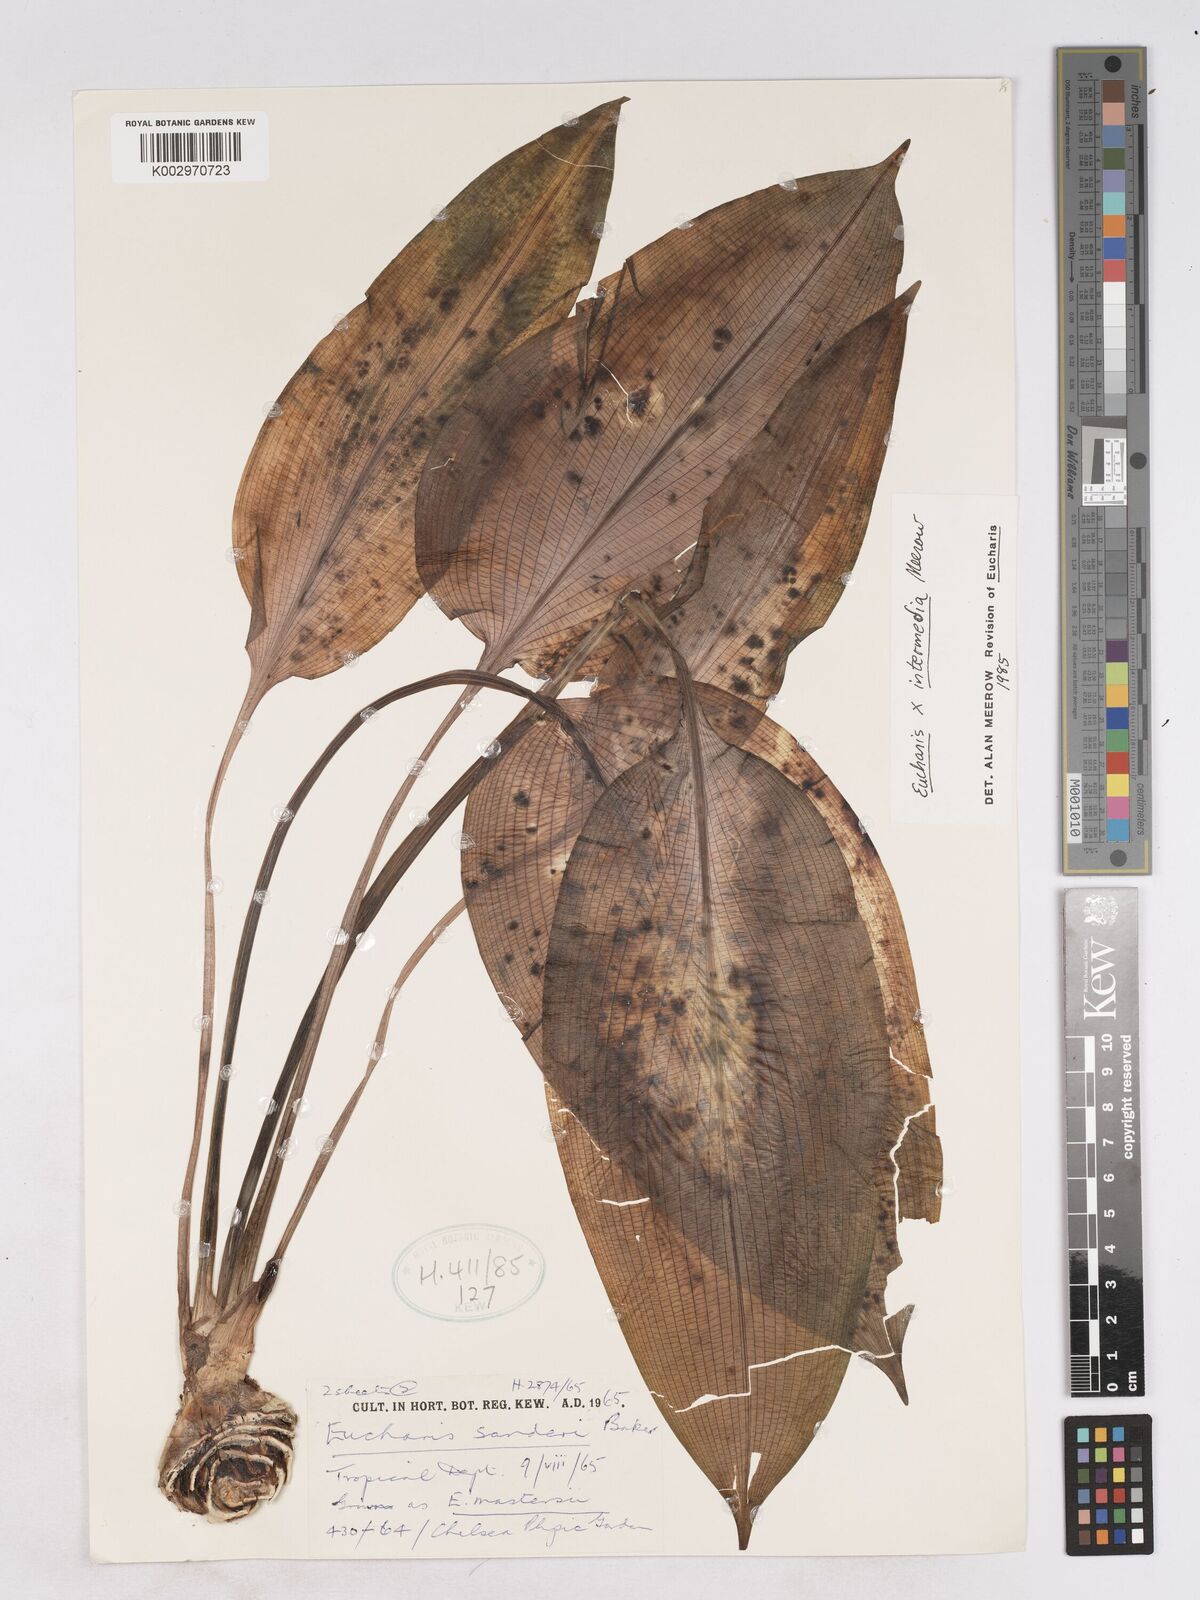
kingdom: Plantae
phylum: Tracheophyta
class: Liliopsida
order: Asparagales
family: Amaryllidaceae
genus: Calicharis
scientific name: Calicharis butcheri
